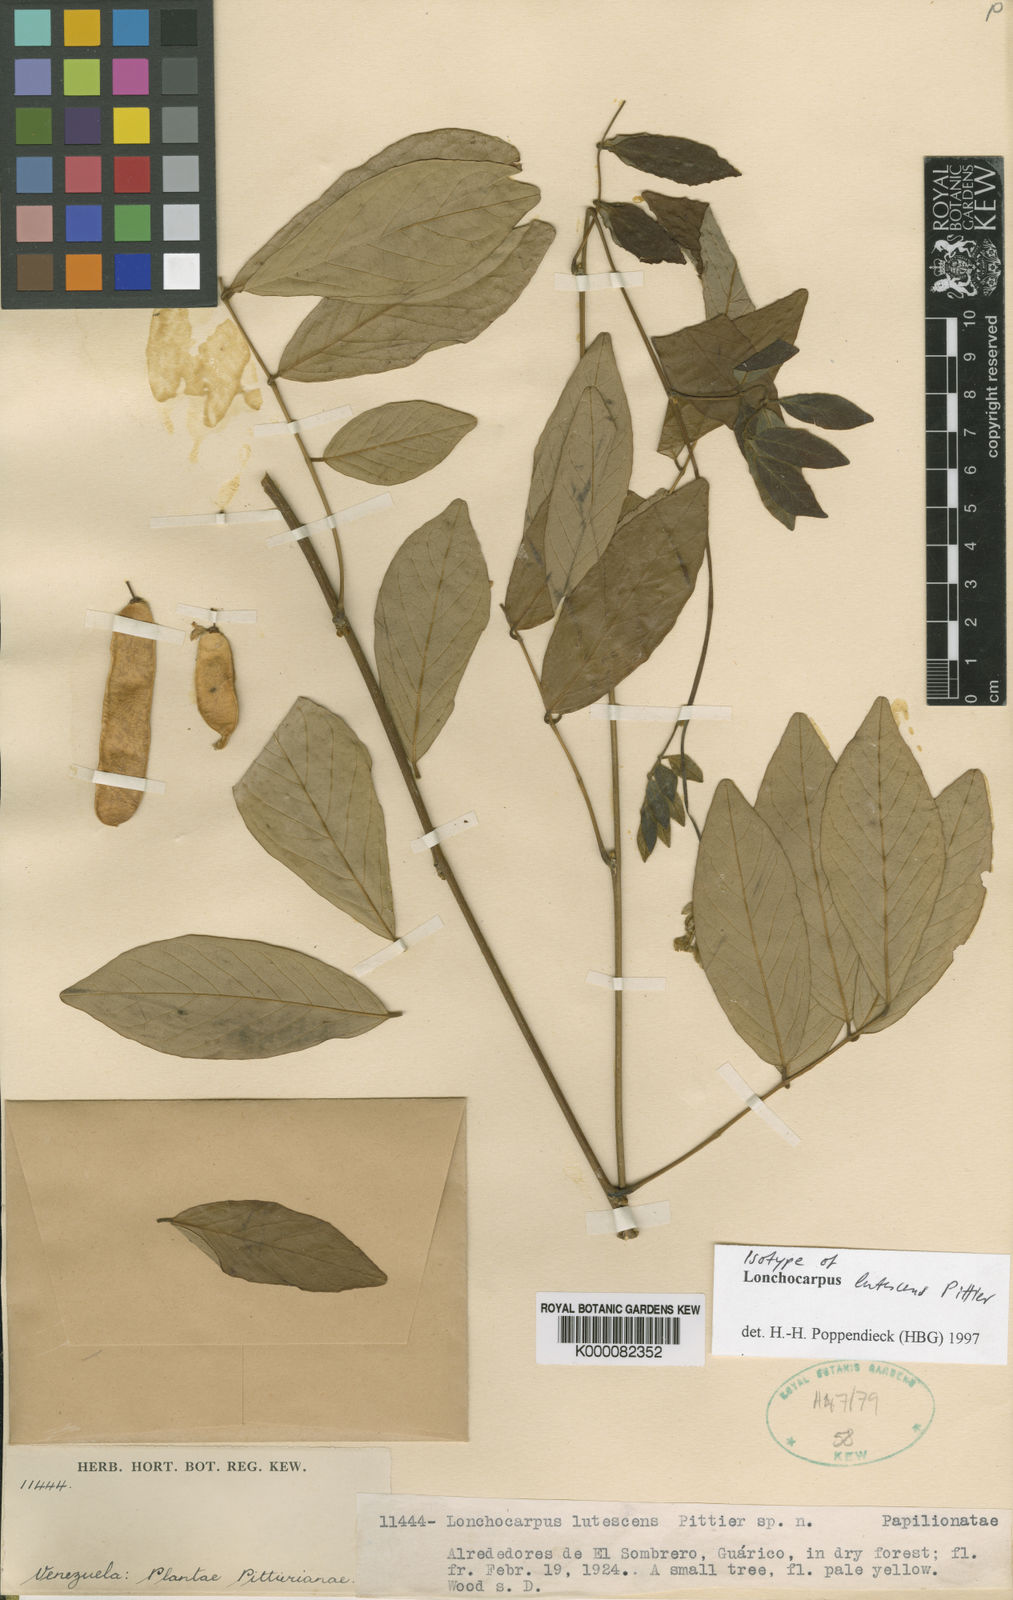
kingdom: Plantae
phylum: Tracheophyta
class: Magnoliopsida
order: Fabales
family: Fabaceae
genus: Muellera
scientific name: Muellera lutescens
